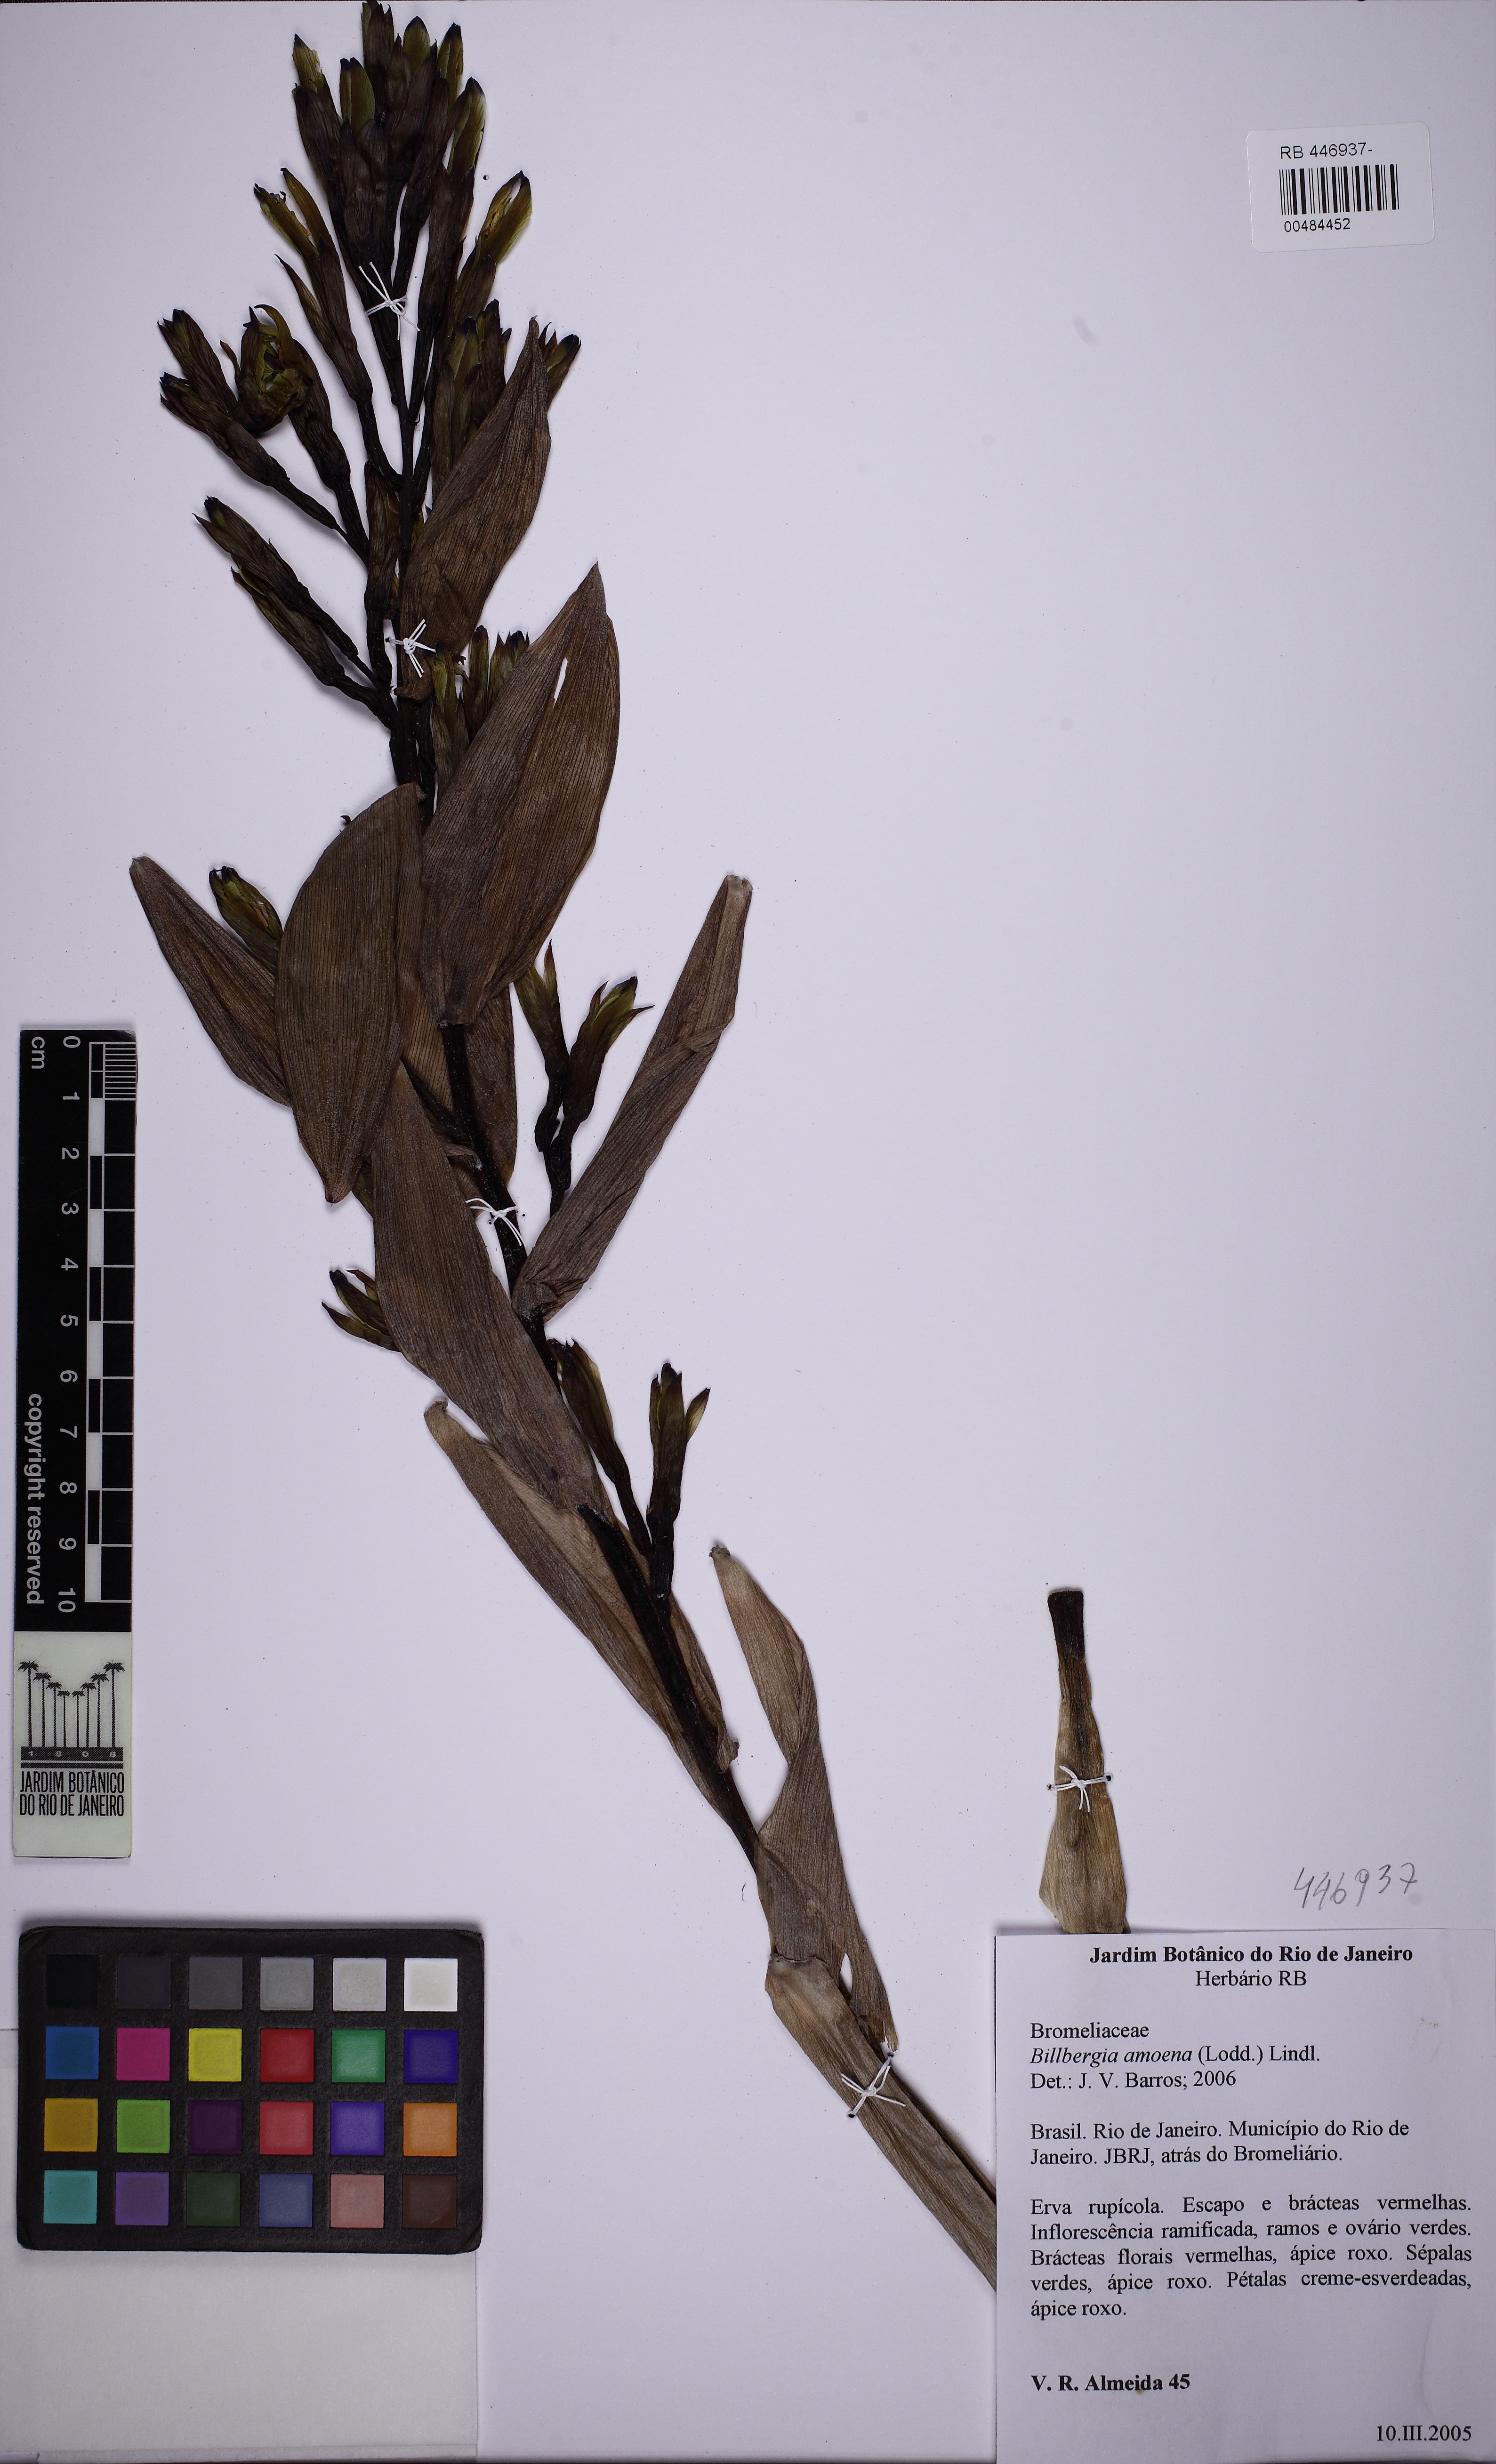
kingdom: Plantae
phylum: Tracheophyta
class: Liliopsida
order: Poales
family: Bromeliaceae
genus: Billbergia
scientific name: Billbergia amoena
